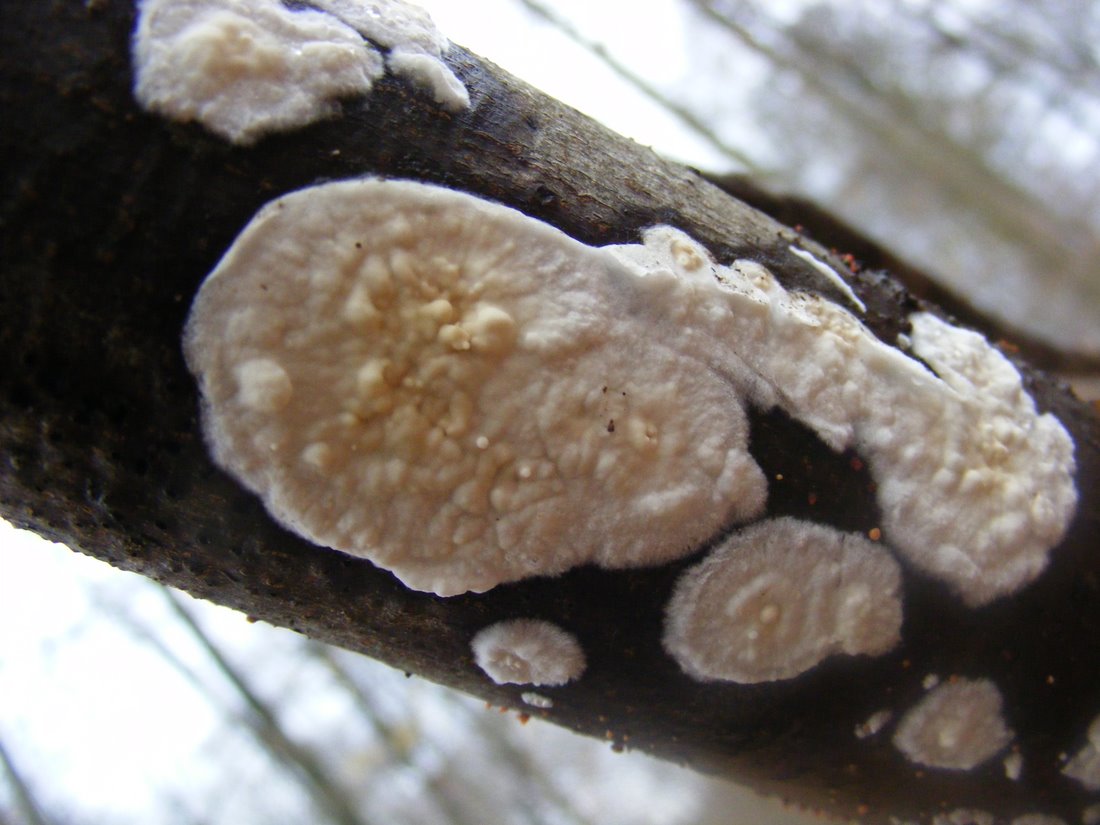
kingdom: Fungi
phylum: Basidiomycota
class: Agaricomycetes
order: Polyporales
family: Irpicaceae
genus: Byssomerulius
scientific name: Byssomerulius corium
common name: læder-åresvamp
